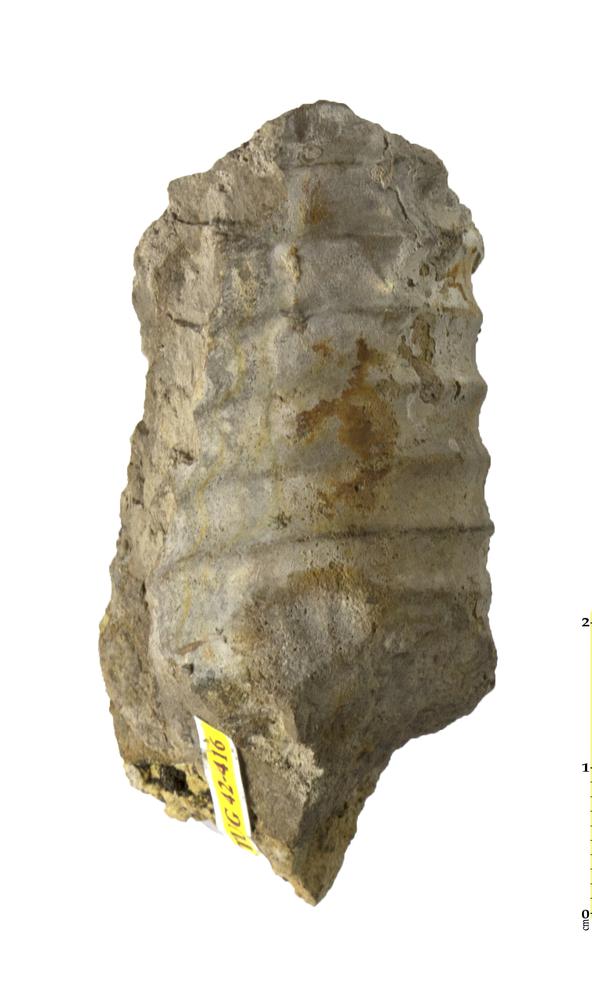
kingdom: Animalia
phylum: Mollusca
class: Cephalopoda
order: Orthocerida
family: Orthoceratidae
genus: Orthoceras
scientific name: Orthoceras
